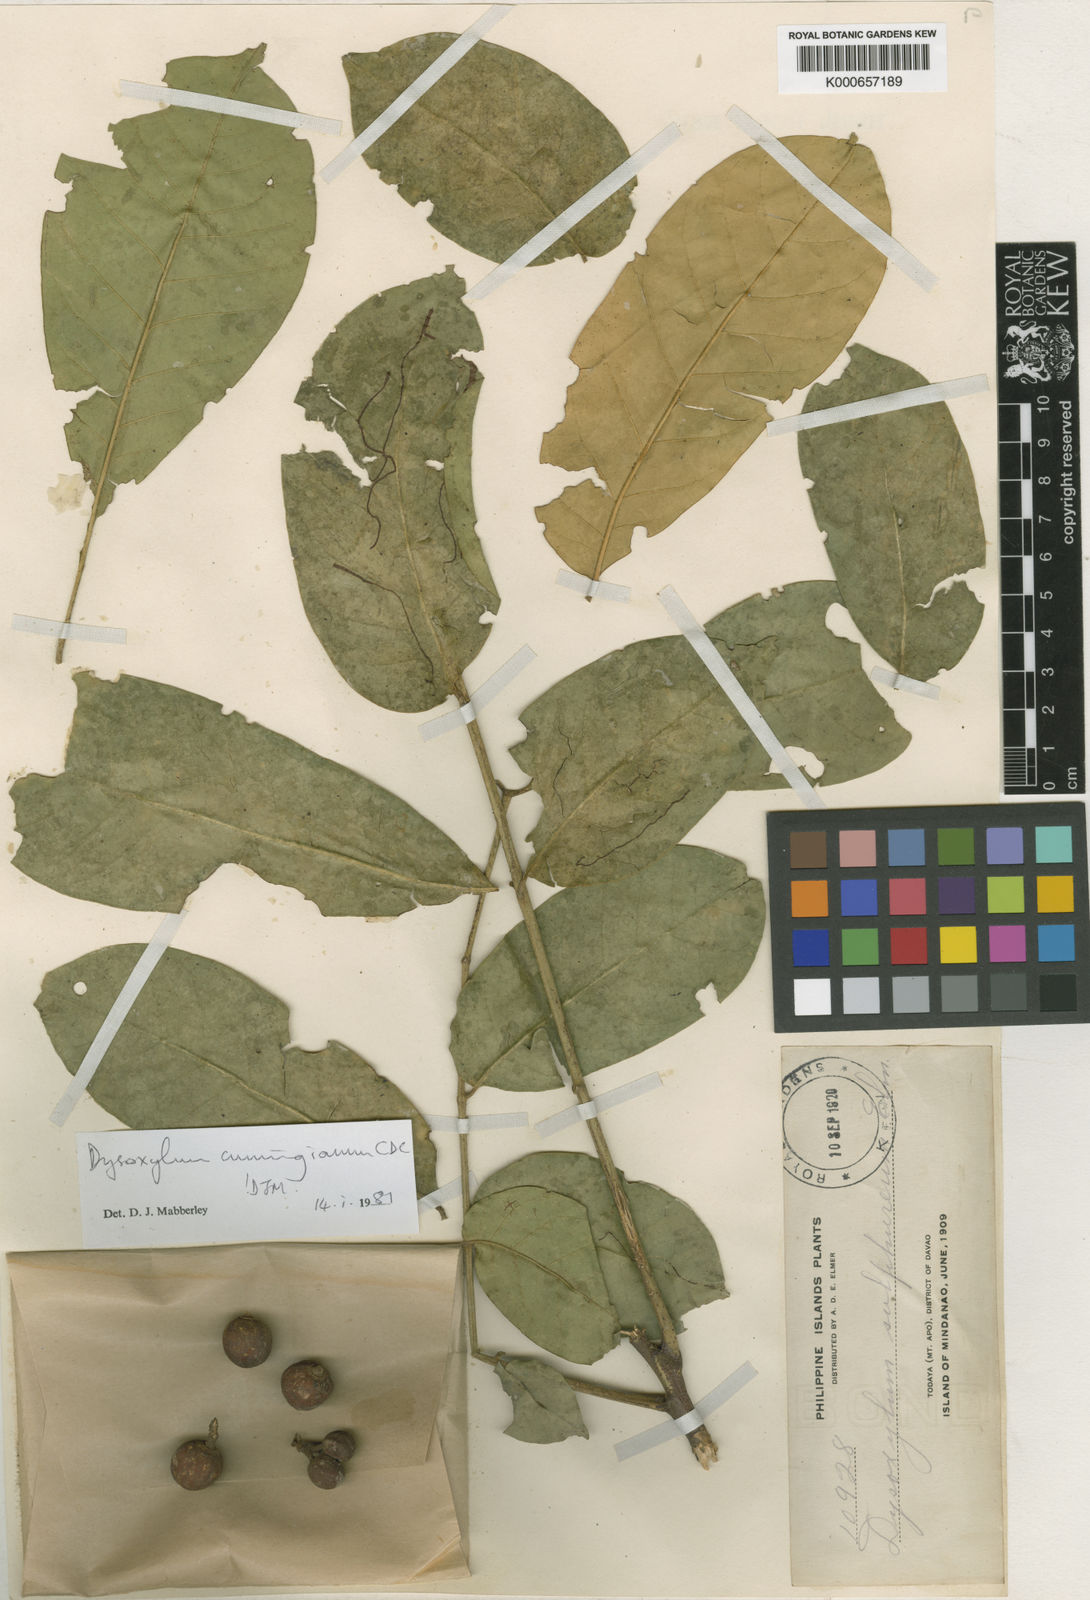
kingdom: Plantae
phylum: Tracheophyta
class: Magnoliopsida
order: Sapindales
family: Meliaceae
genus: Epicharis
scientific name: Epicharis cumingiana
